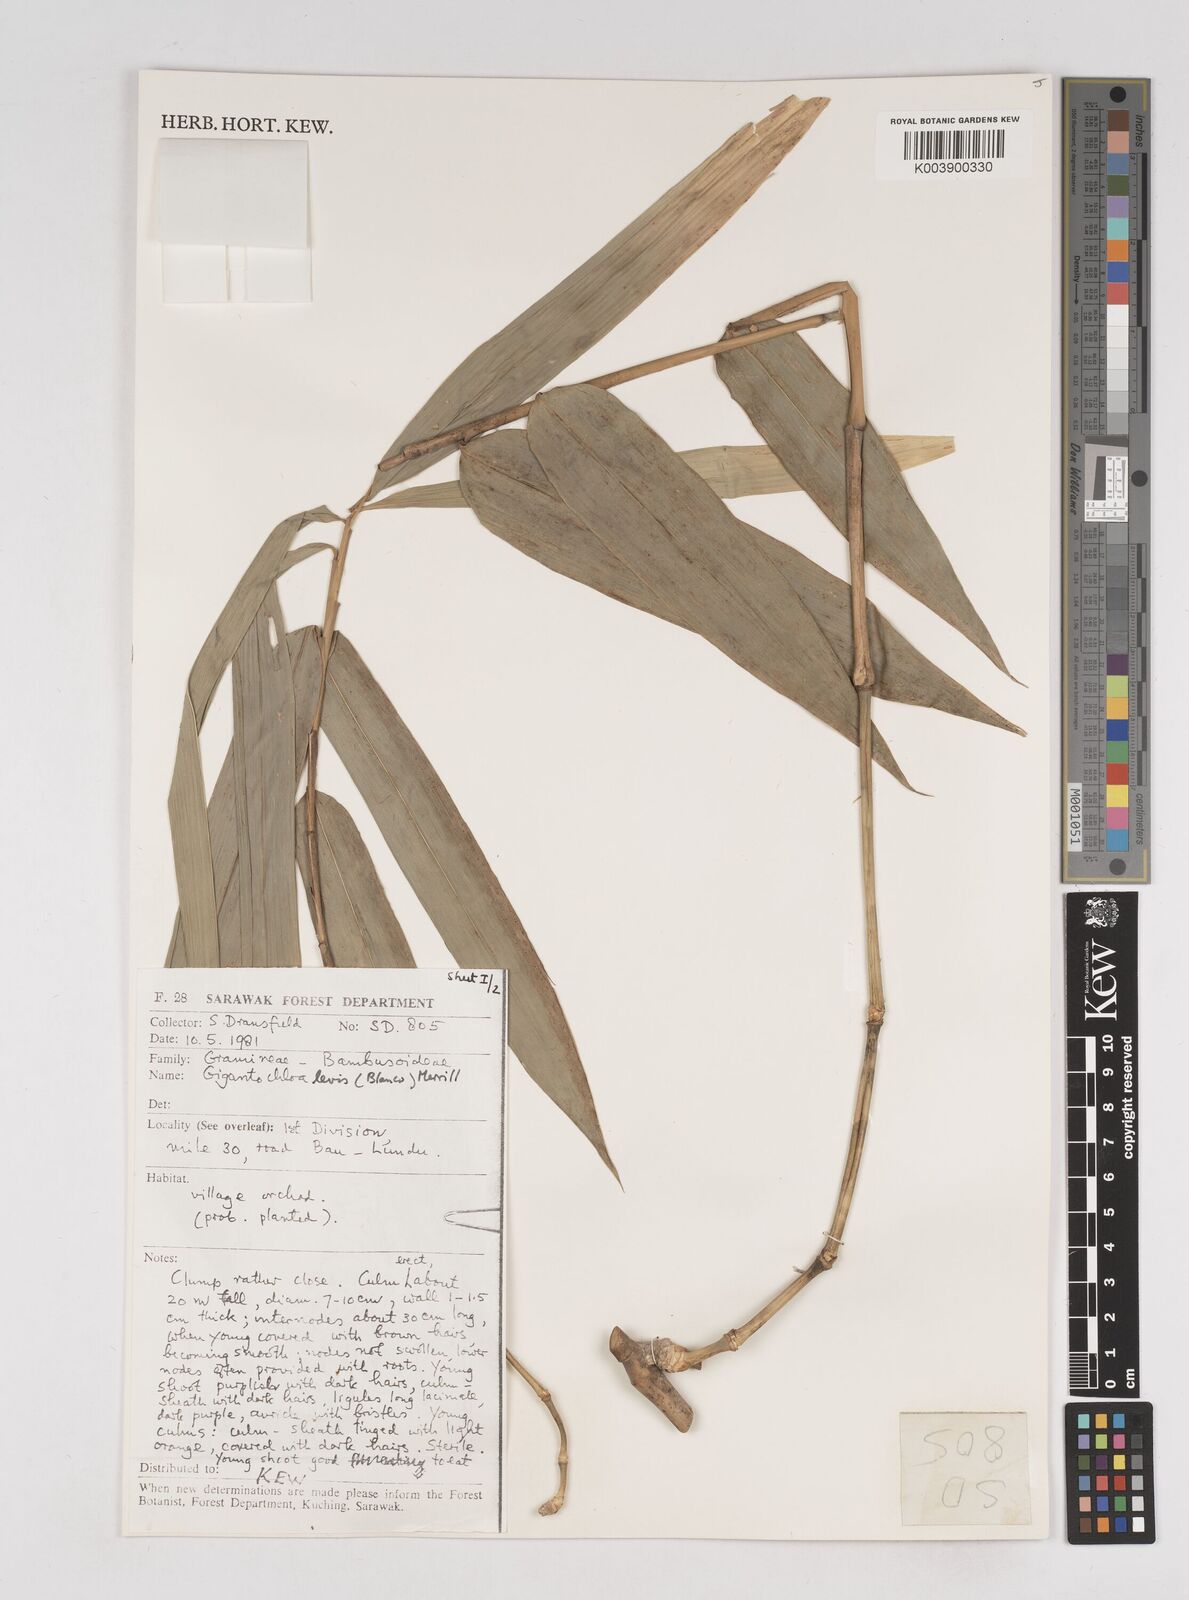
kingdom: Plantae
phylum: Tracheophyta
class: Liliopsida
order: Poales
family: Poaceae
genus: Gigantochloa
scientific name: Gigantochloa levis
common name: Smooth-shoot gigantochloa
